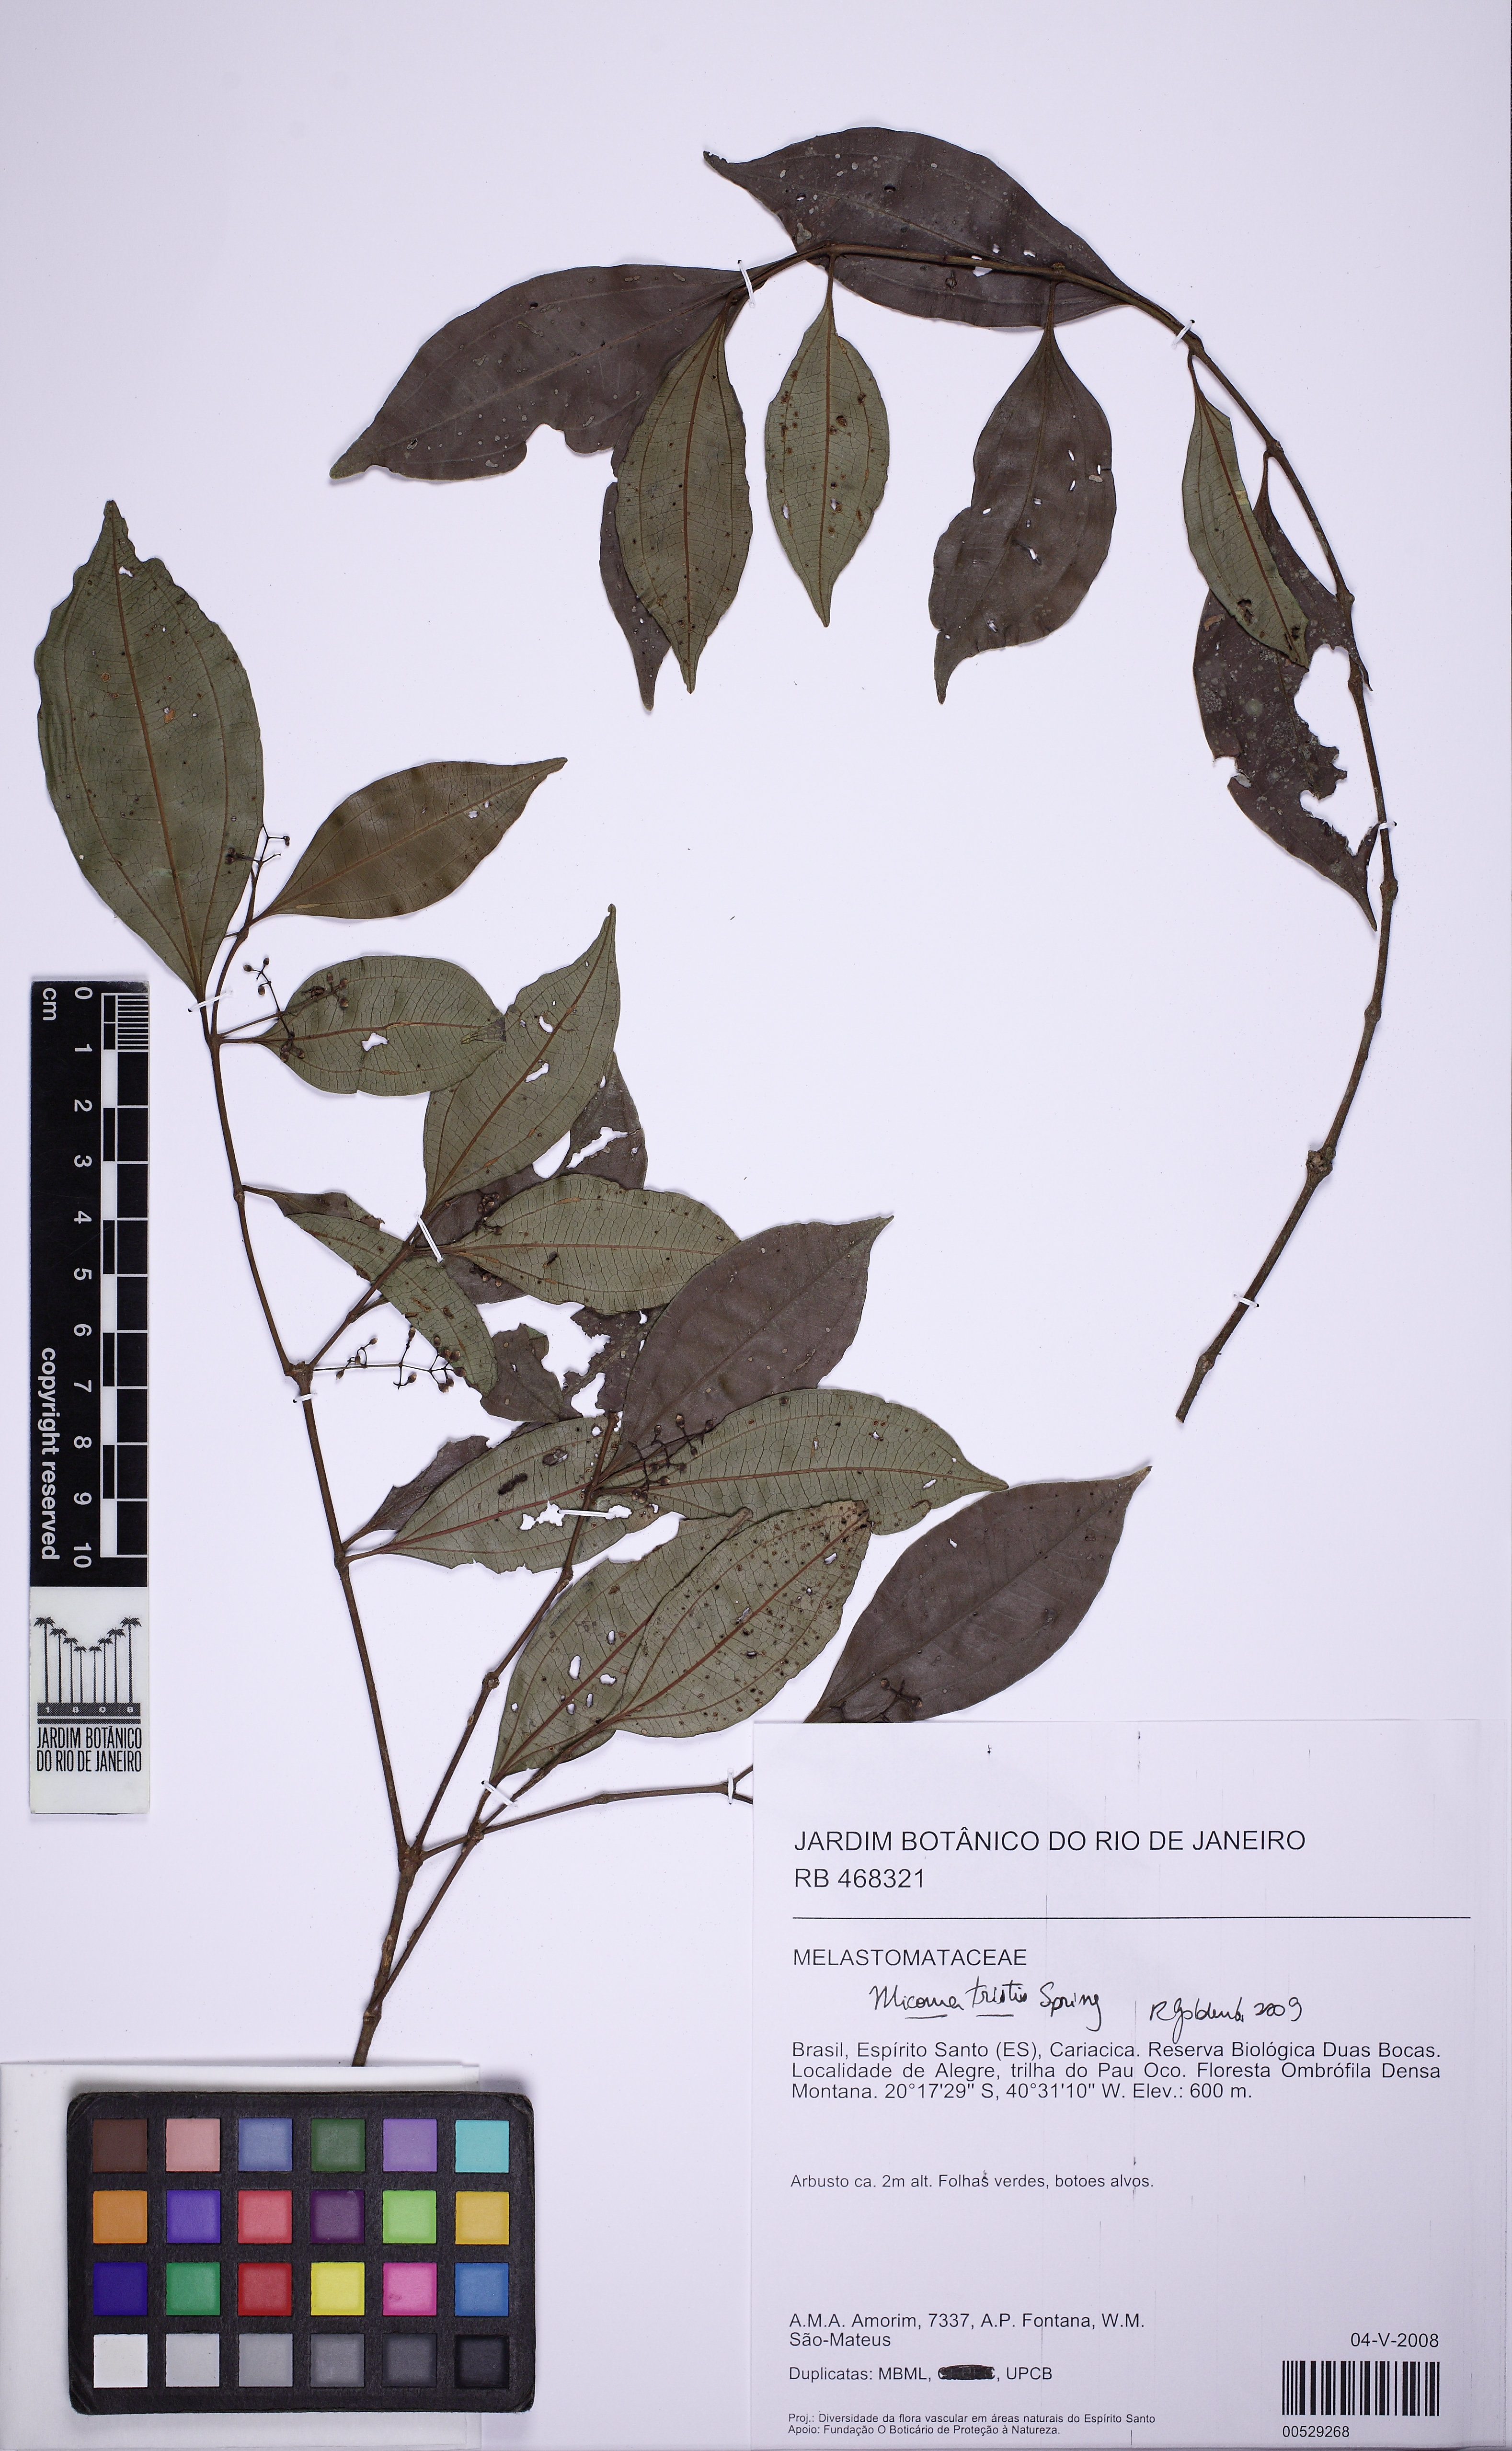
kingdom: Plantae
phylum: Tracheophyta
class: Magnoliopsida
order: Myrtales
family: Melastomataceae
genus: Miconia
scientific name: Miconia tristis
